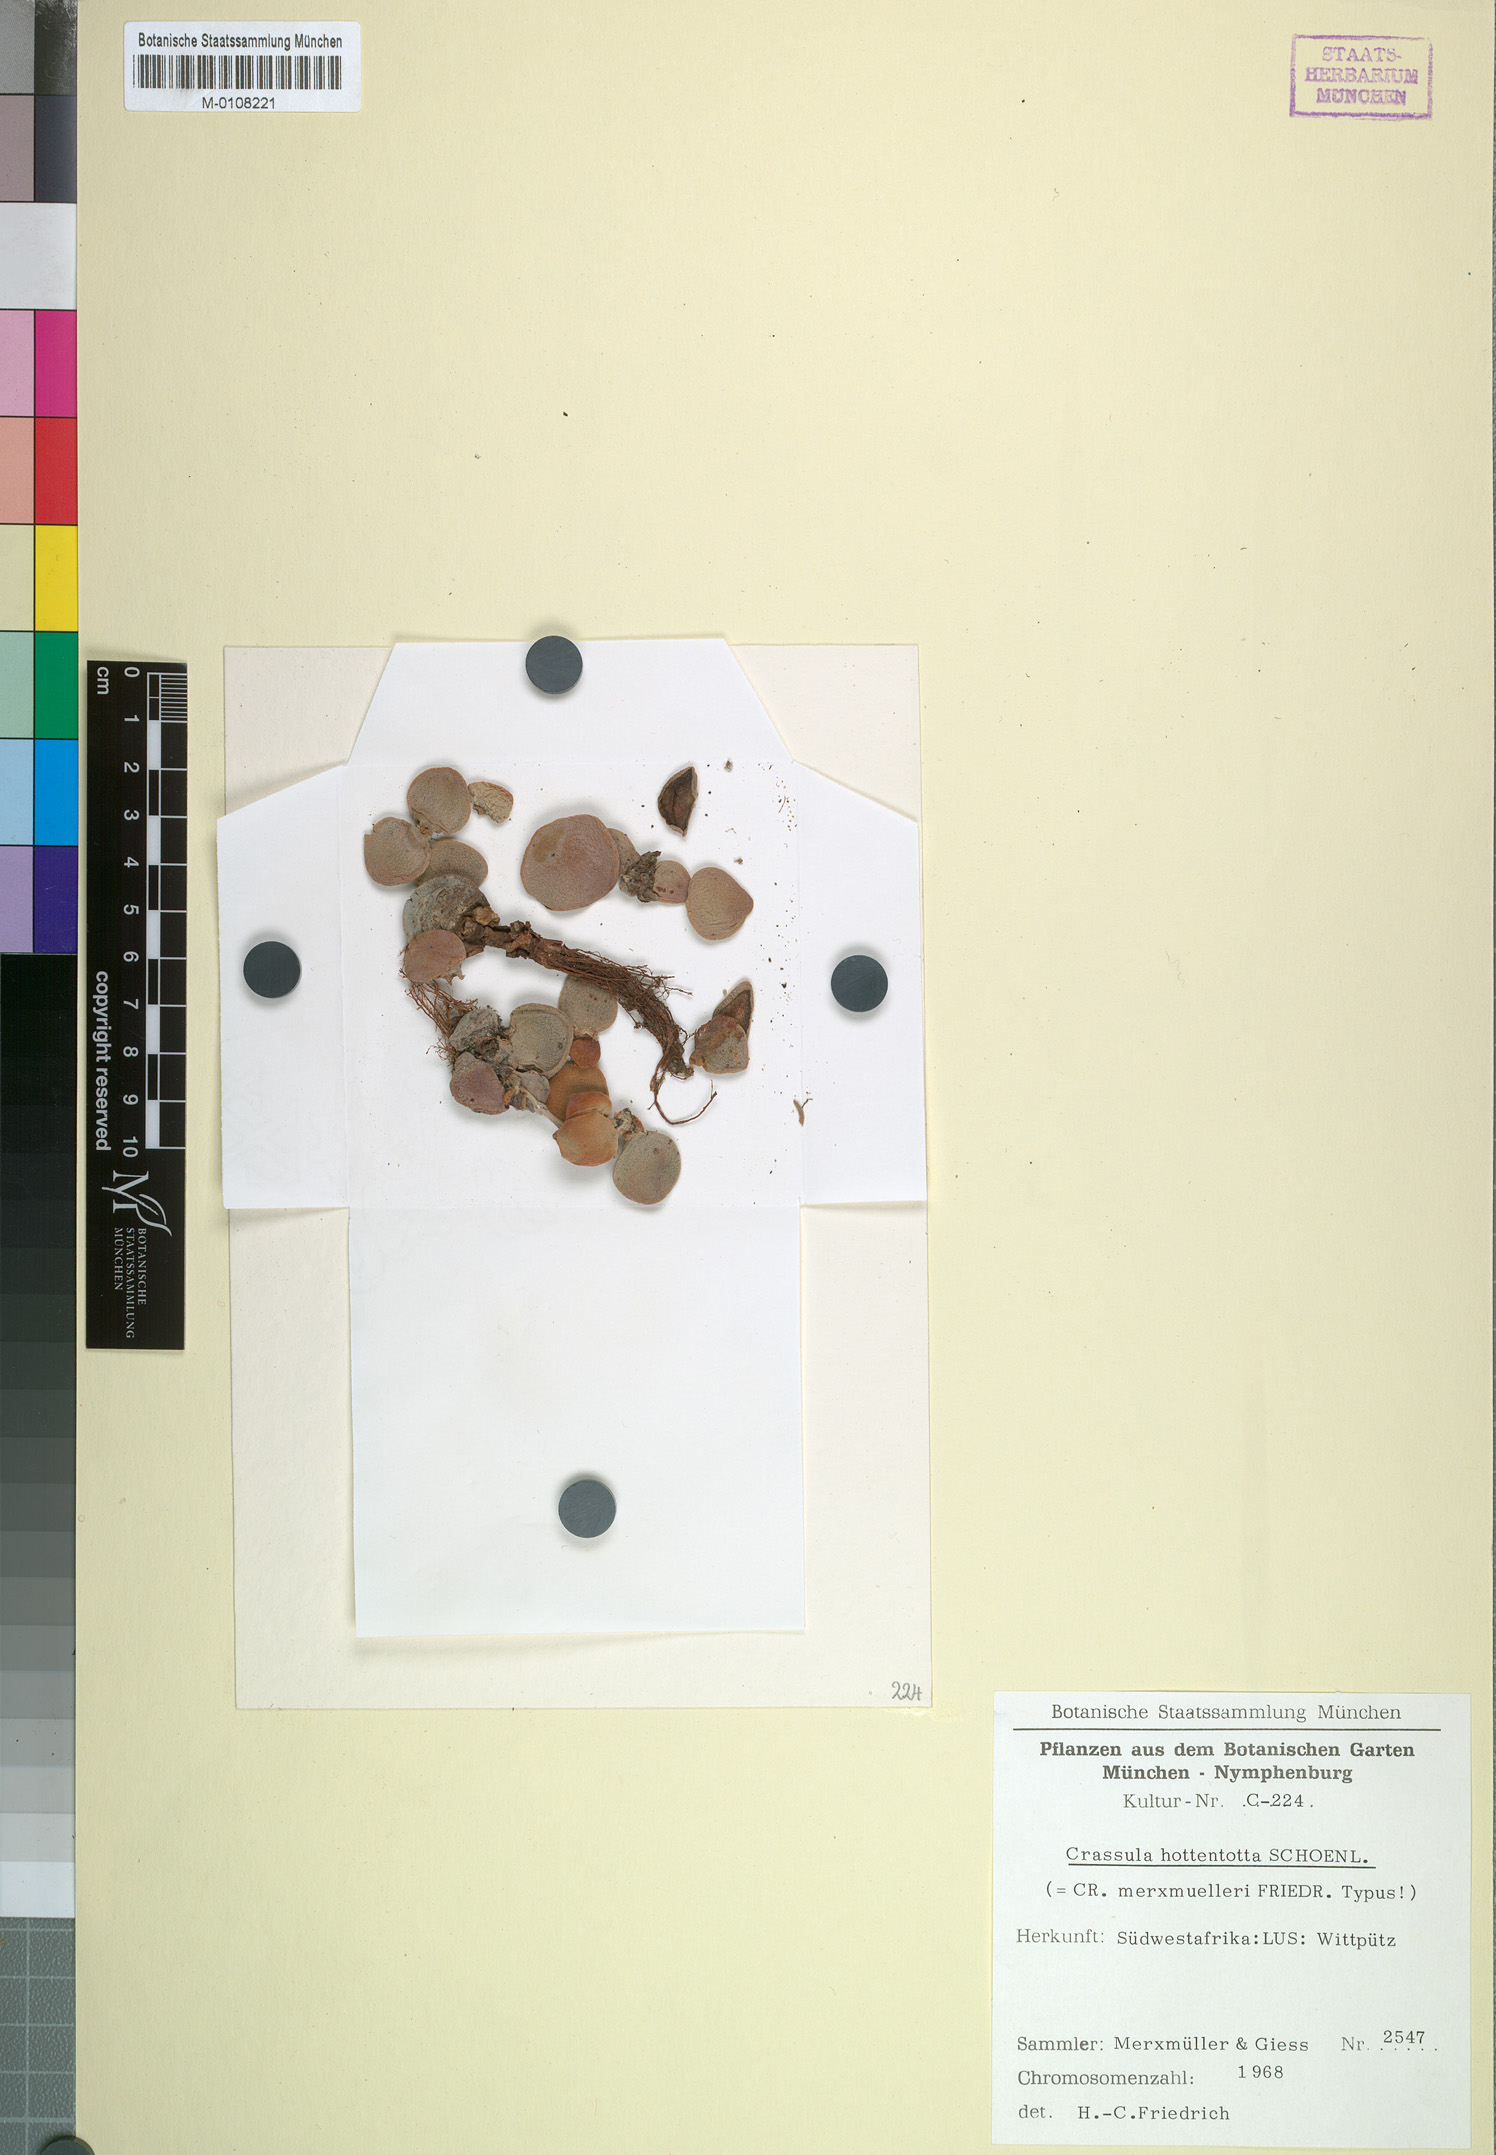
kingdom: Plantae
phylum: Tracheophyta
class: Magnoliopsida
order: Saxifragales
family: Crassulaceae
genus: Crassula
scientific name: Crassula sericea
